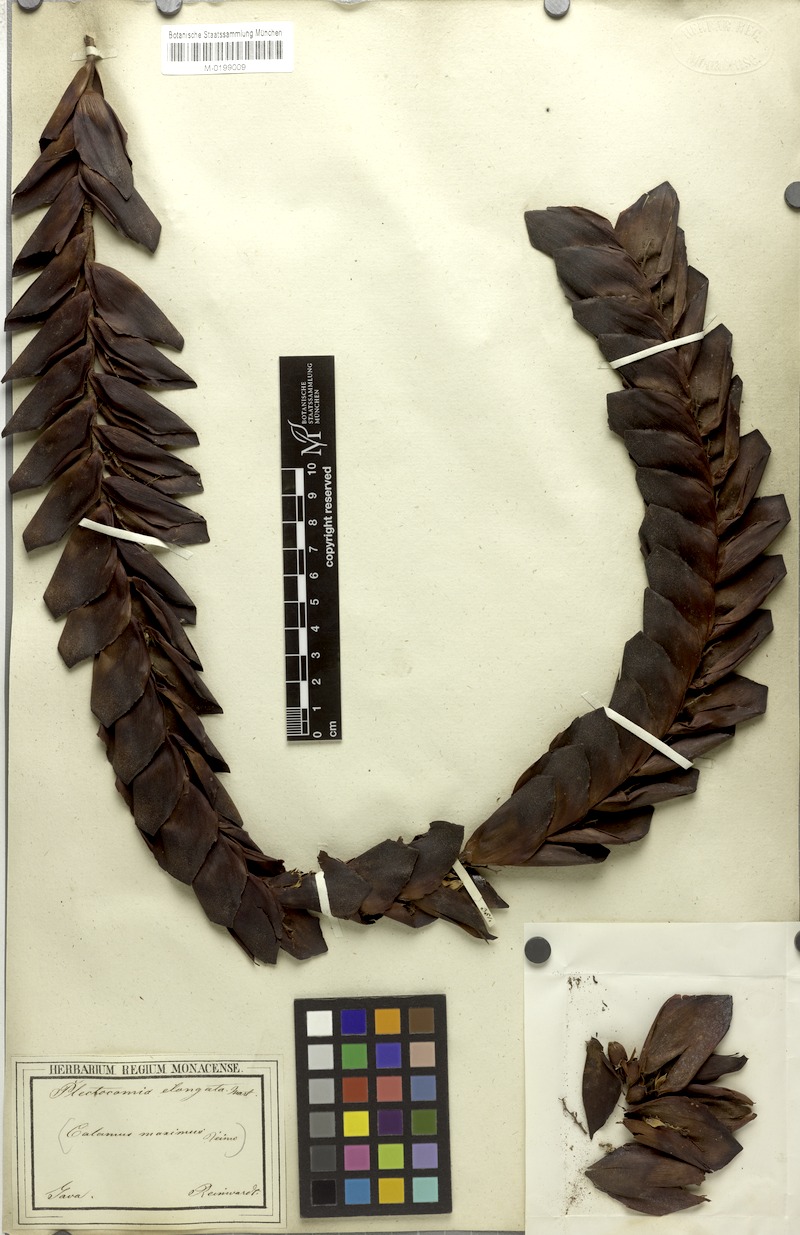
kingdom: Plantae
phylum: Tracheophyta
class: Liliopsida
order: Arecales
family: Arecaceae
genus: Plectocomia
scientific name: Plectocomia elongata
